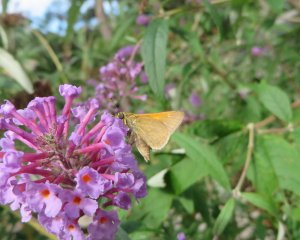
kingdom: Animalia
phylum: Arthropoda
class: Insecta
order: Lepidoptera
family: Hesperiidae
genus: Polites
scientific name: Polites themistocles
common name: Tawny-edged Skipper
